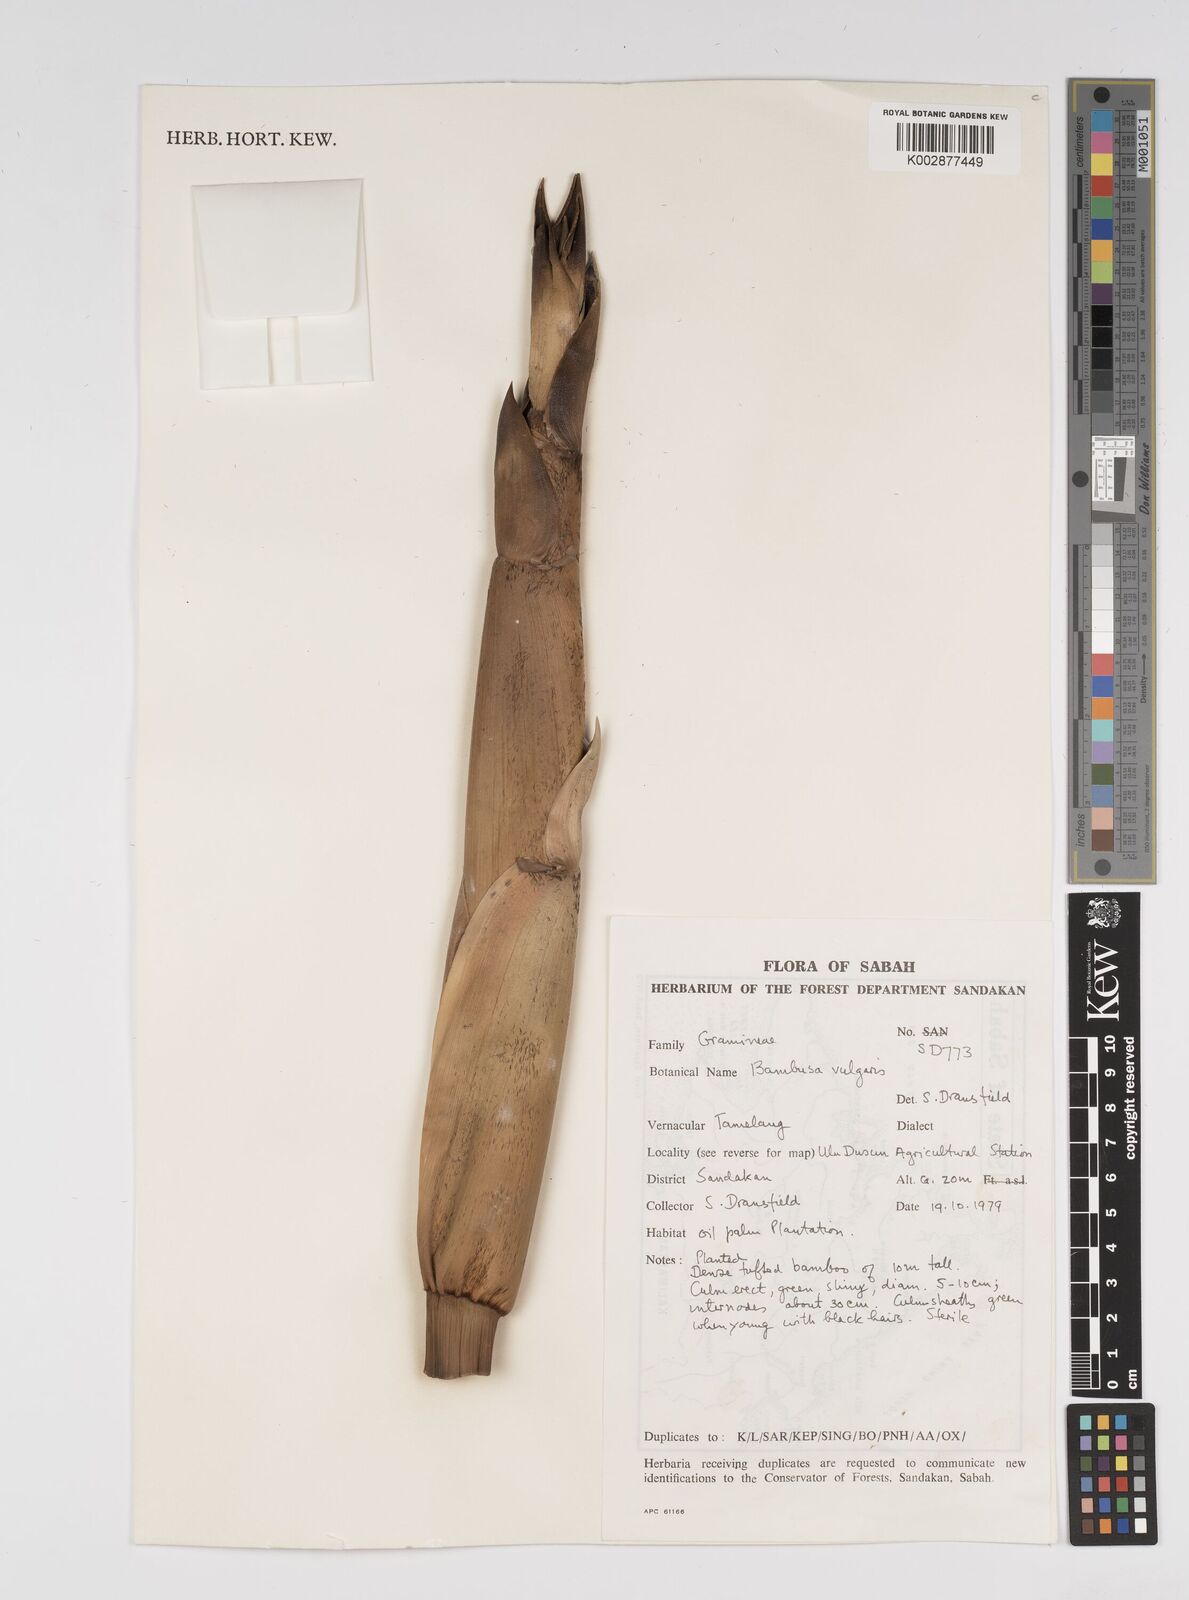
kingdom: Plantae
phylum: Tracheophyta
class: Liliopsida
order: Poales
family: Poaceae
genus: Bambusa
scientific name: Bambusa vulgaris
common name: Common bamboo
